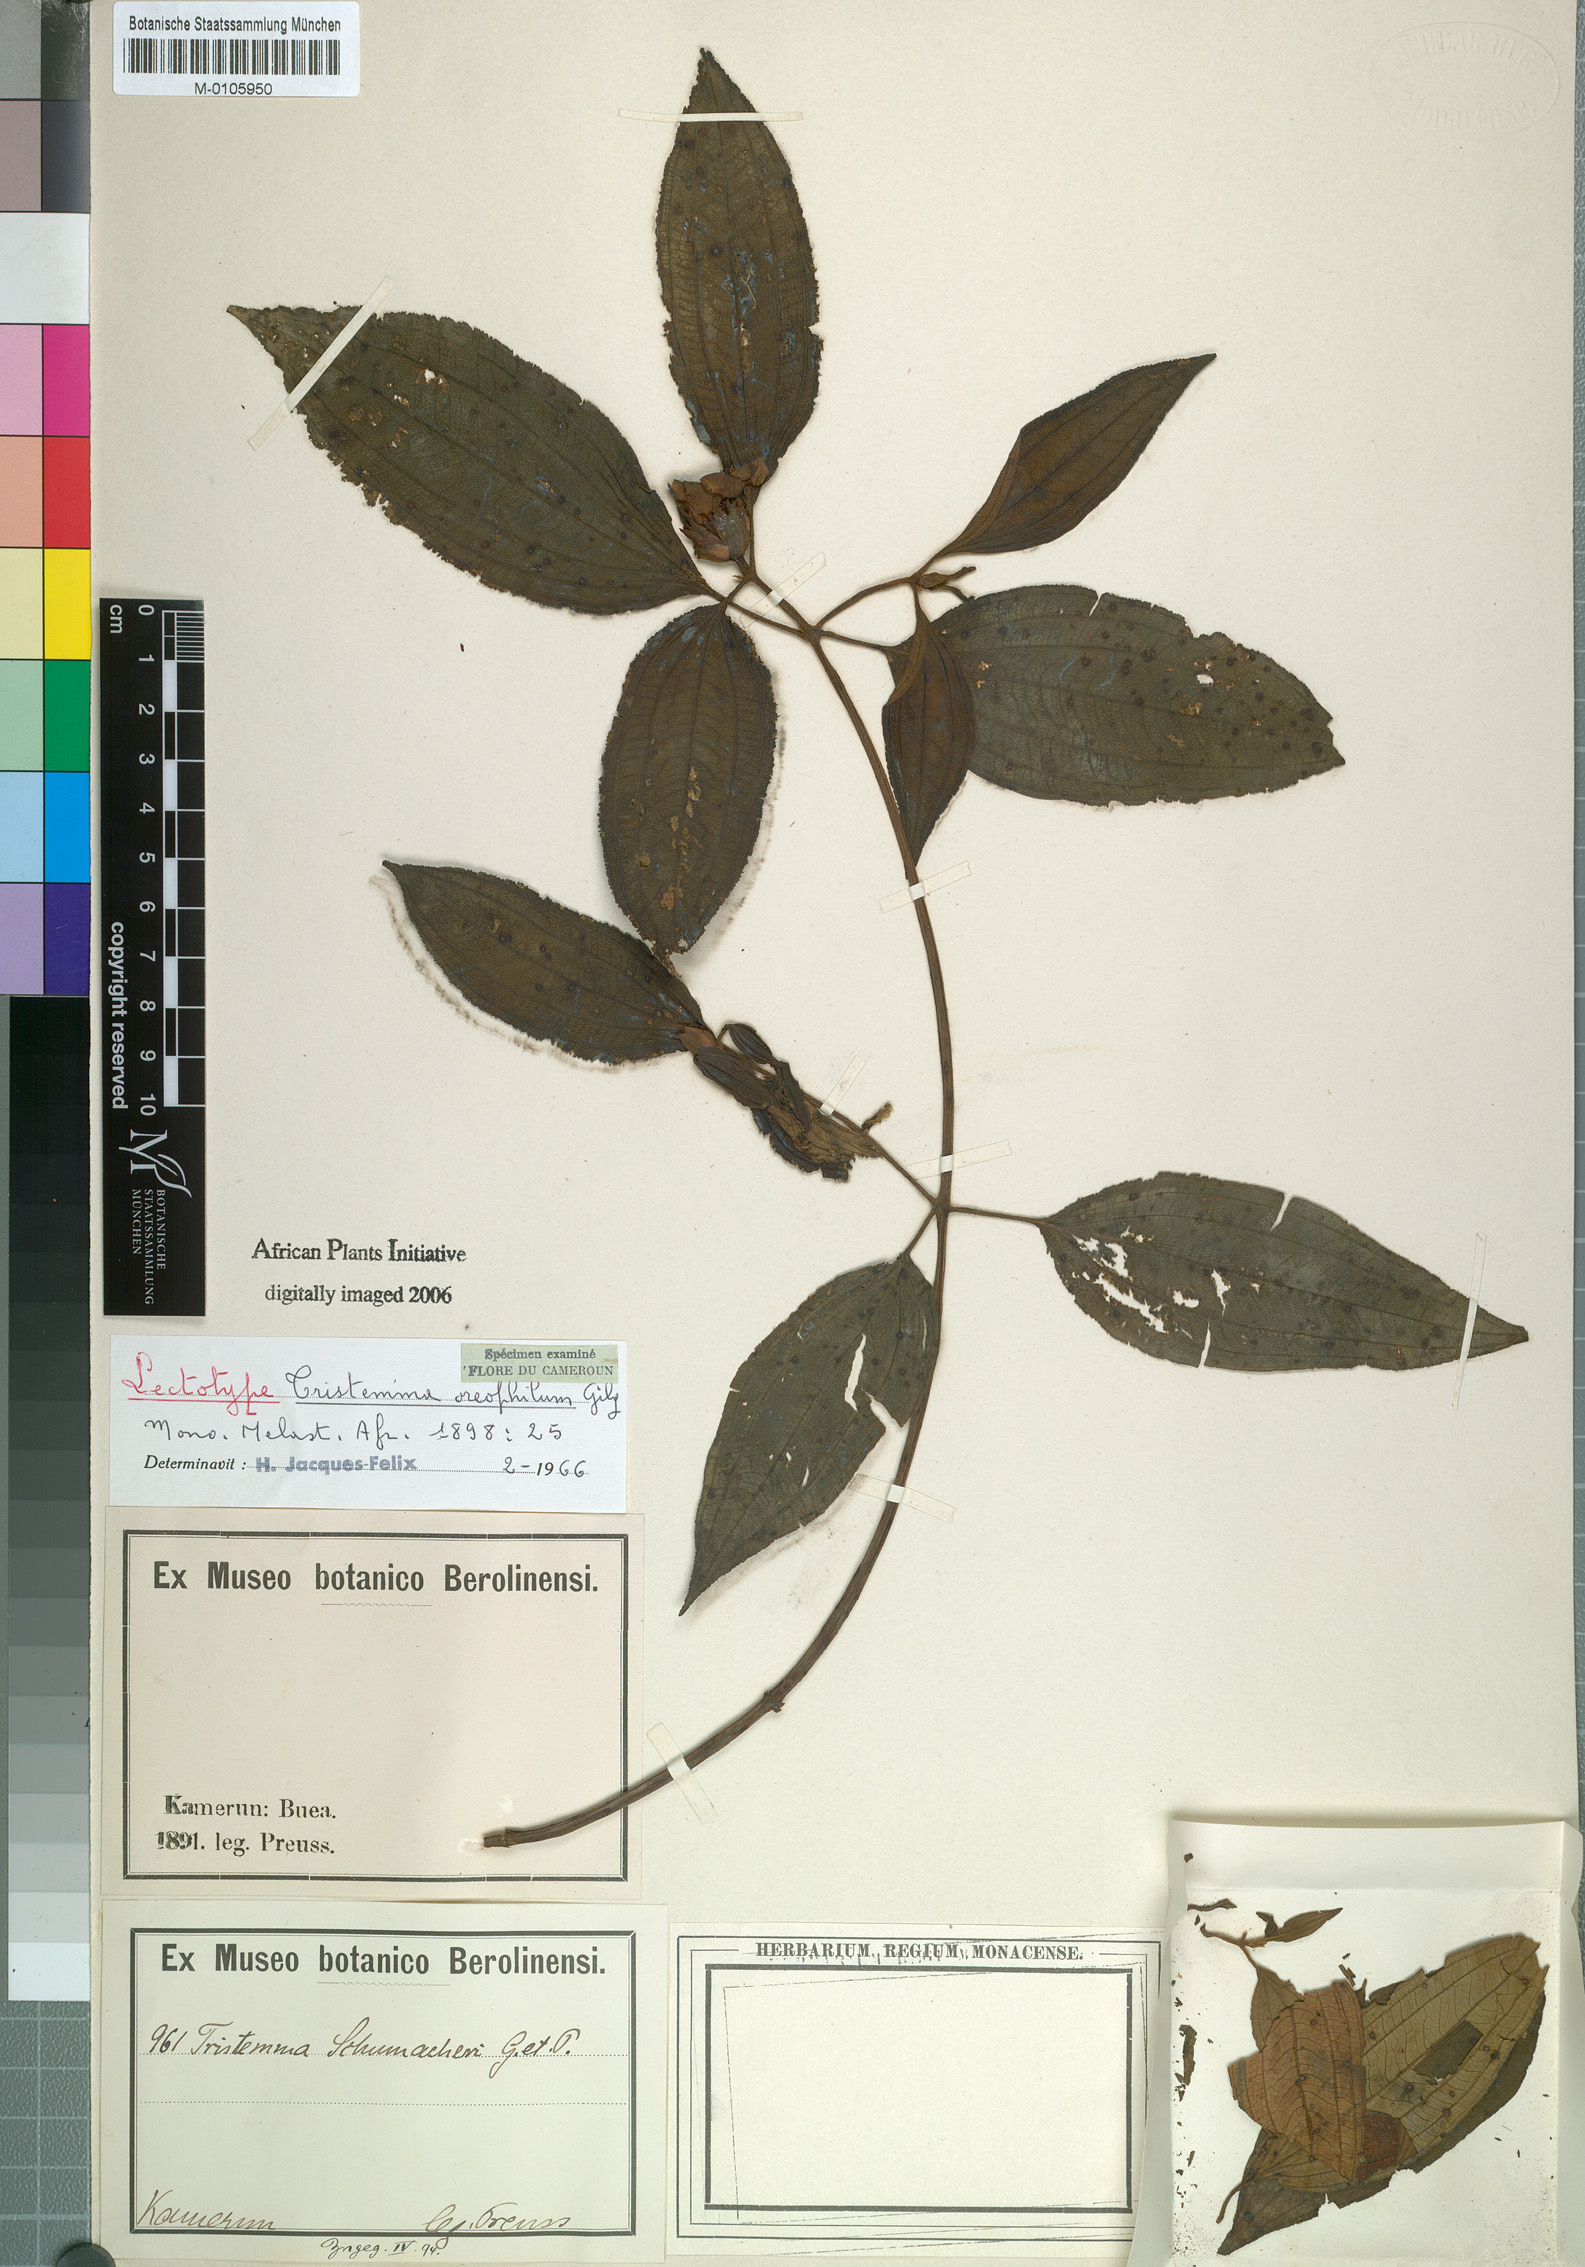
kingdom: Plantae
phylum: Tracheophyta
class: Magnoliopsida
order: Myrtales
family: Melastomataceae
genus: Tristemma
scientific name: Tristemma oreophilum
